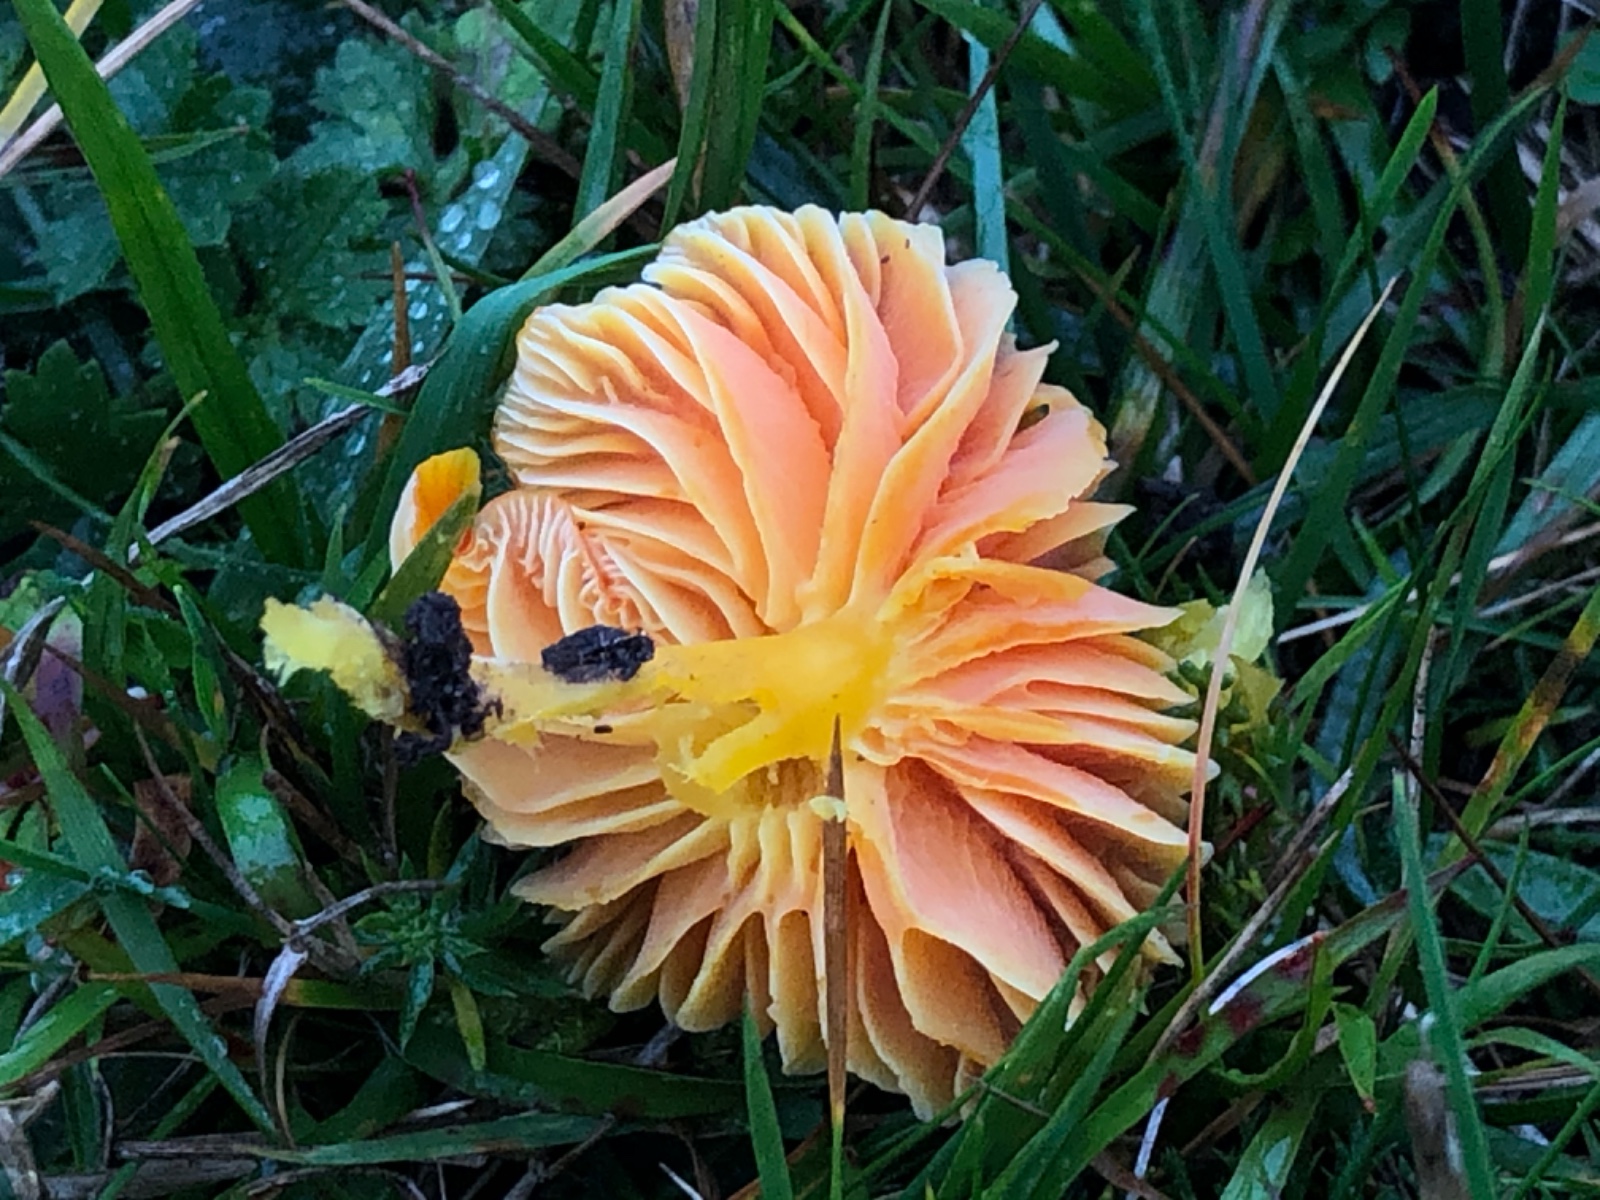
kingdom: Fungi
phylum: Basidiomycota
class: Agaricomycetes
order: Agaricales
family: Hygrophoraceae
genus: Hygrocybe
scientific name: Hygrocybe reidii
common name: honning-vokshat
